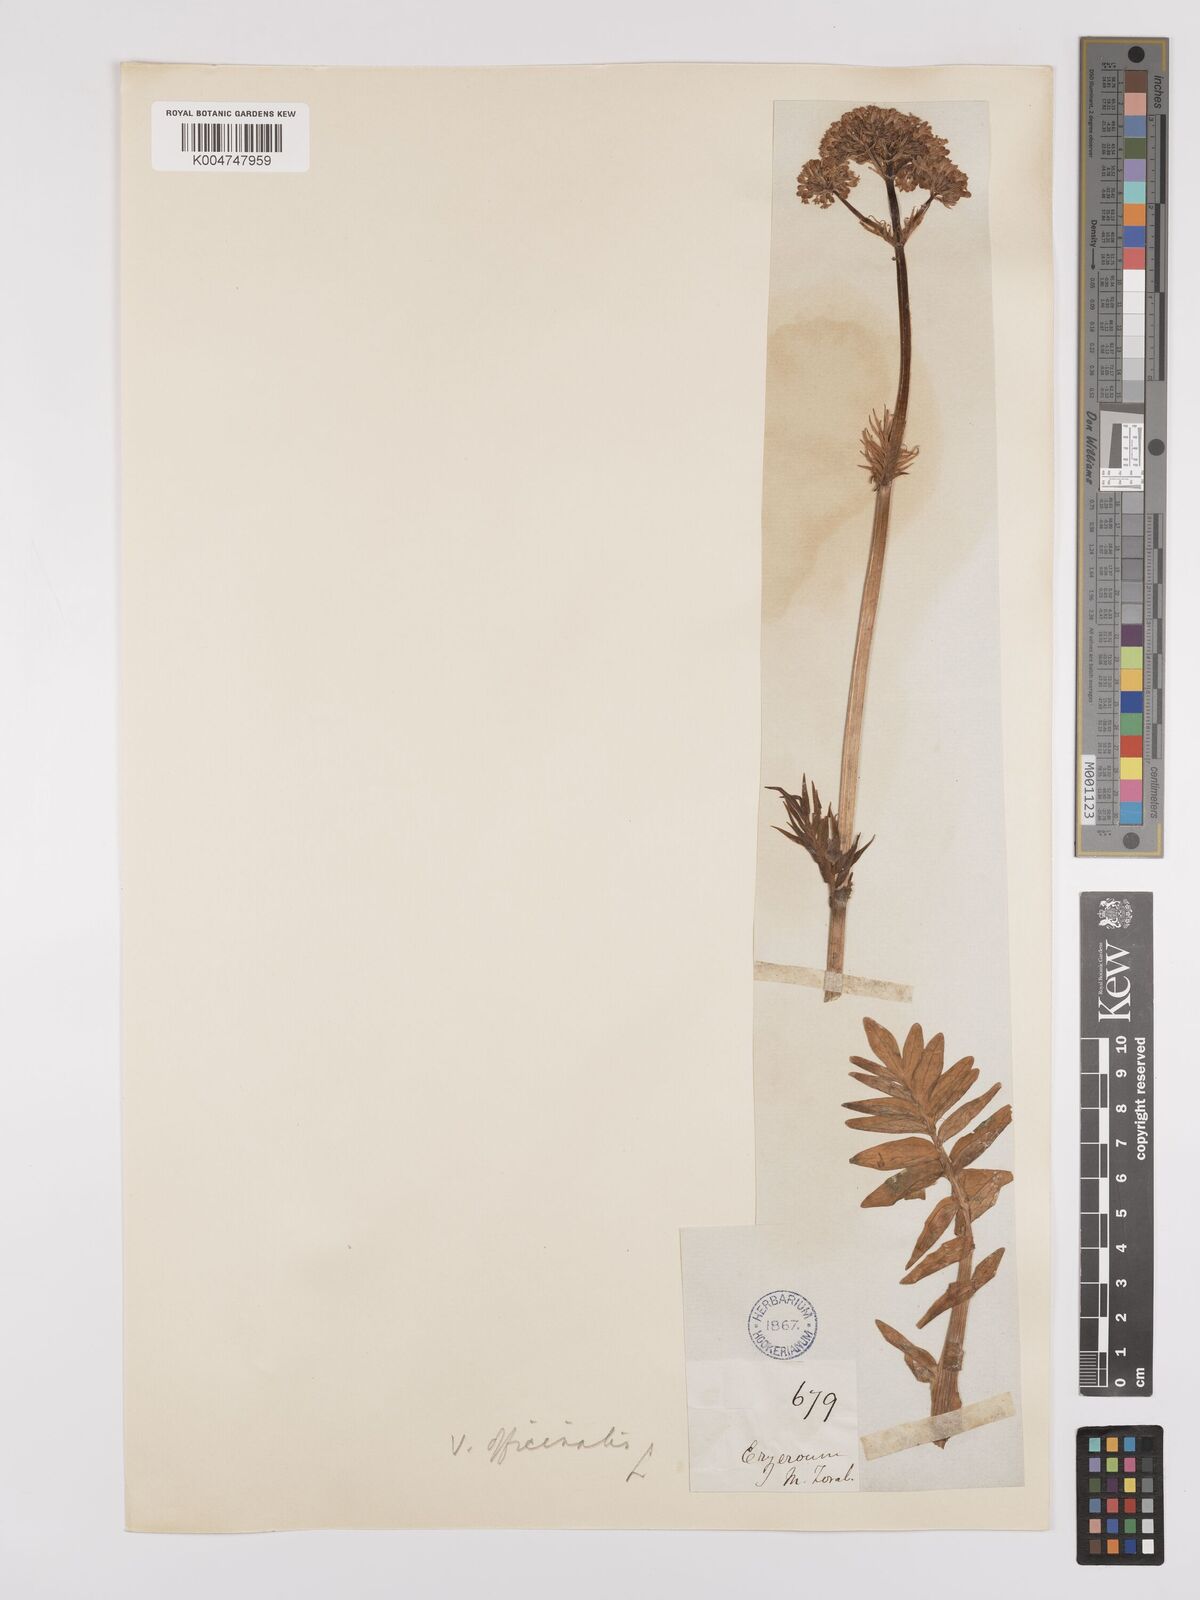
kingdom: Plantae
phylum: Tracheophyta
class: Magnoliopsida
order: Dipsacales
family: Caprifoliaceae
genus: Valeriana
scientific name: Valeriana officinalis
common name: Common valerian
